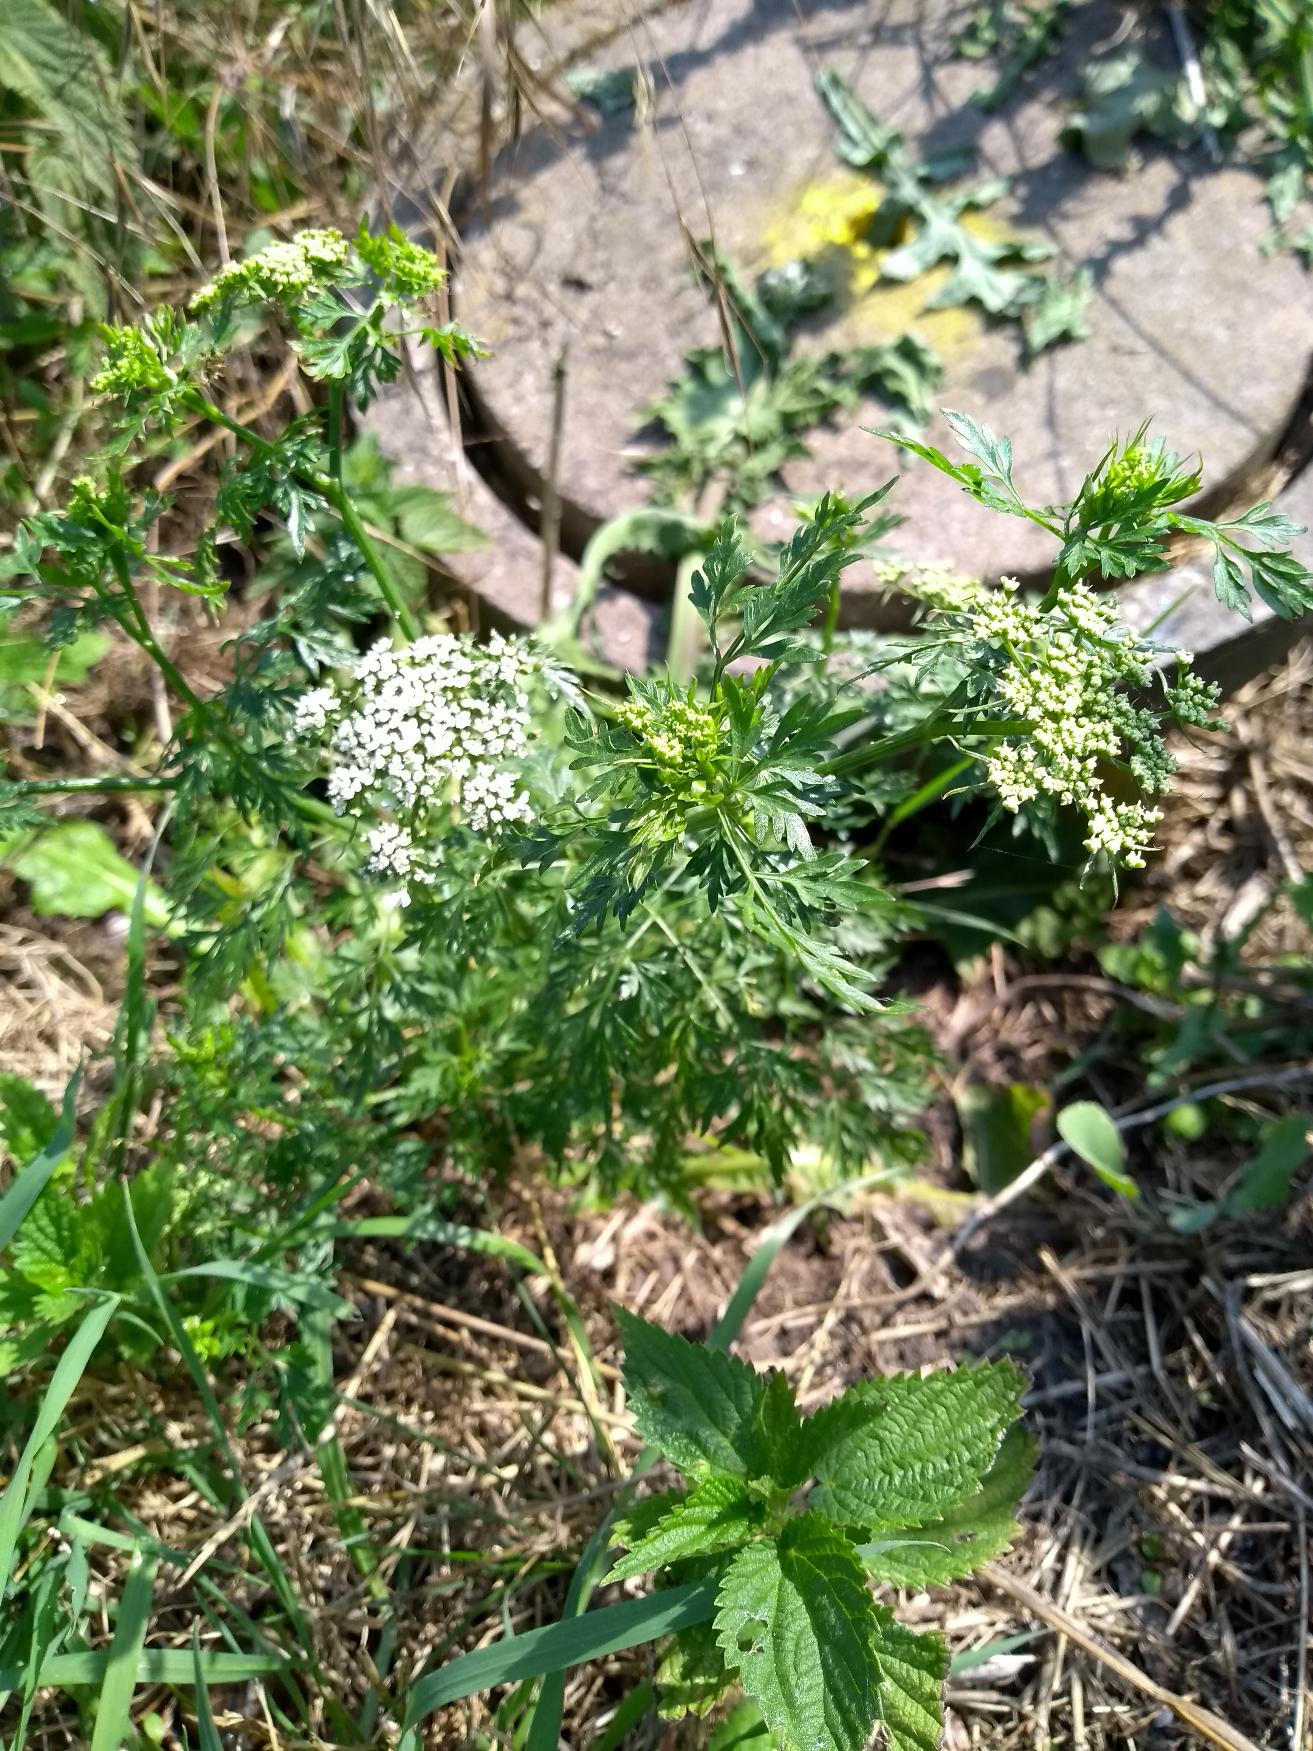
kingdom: Plantae
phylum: Tracheophyta
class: Magnoliopsida
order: Apiales
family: Apiaceae
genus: Aethusa
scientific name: Aethusa cynapium
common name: Hundepersille
